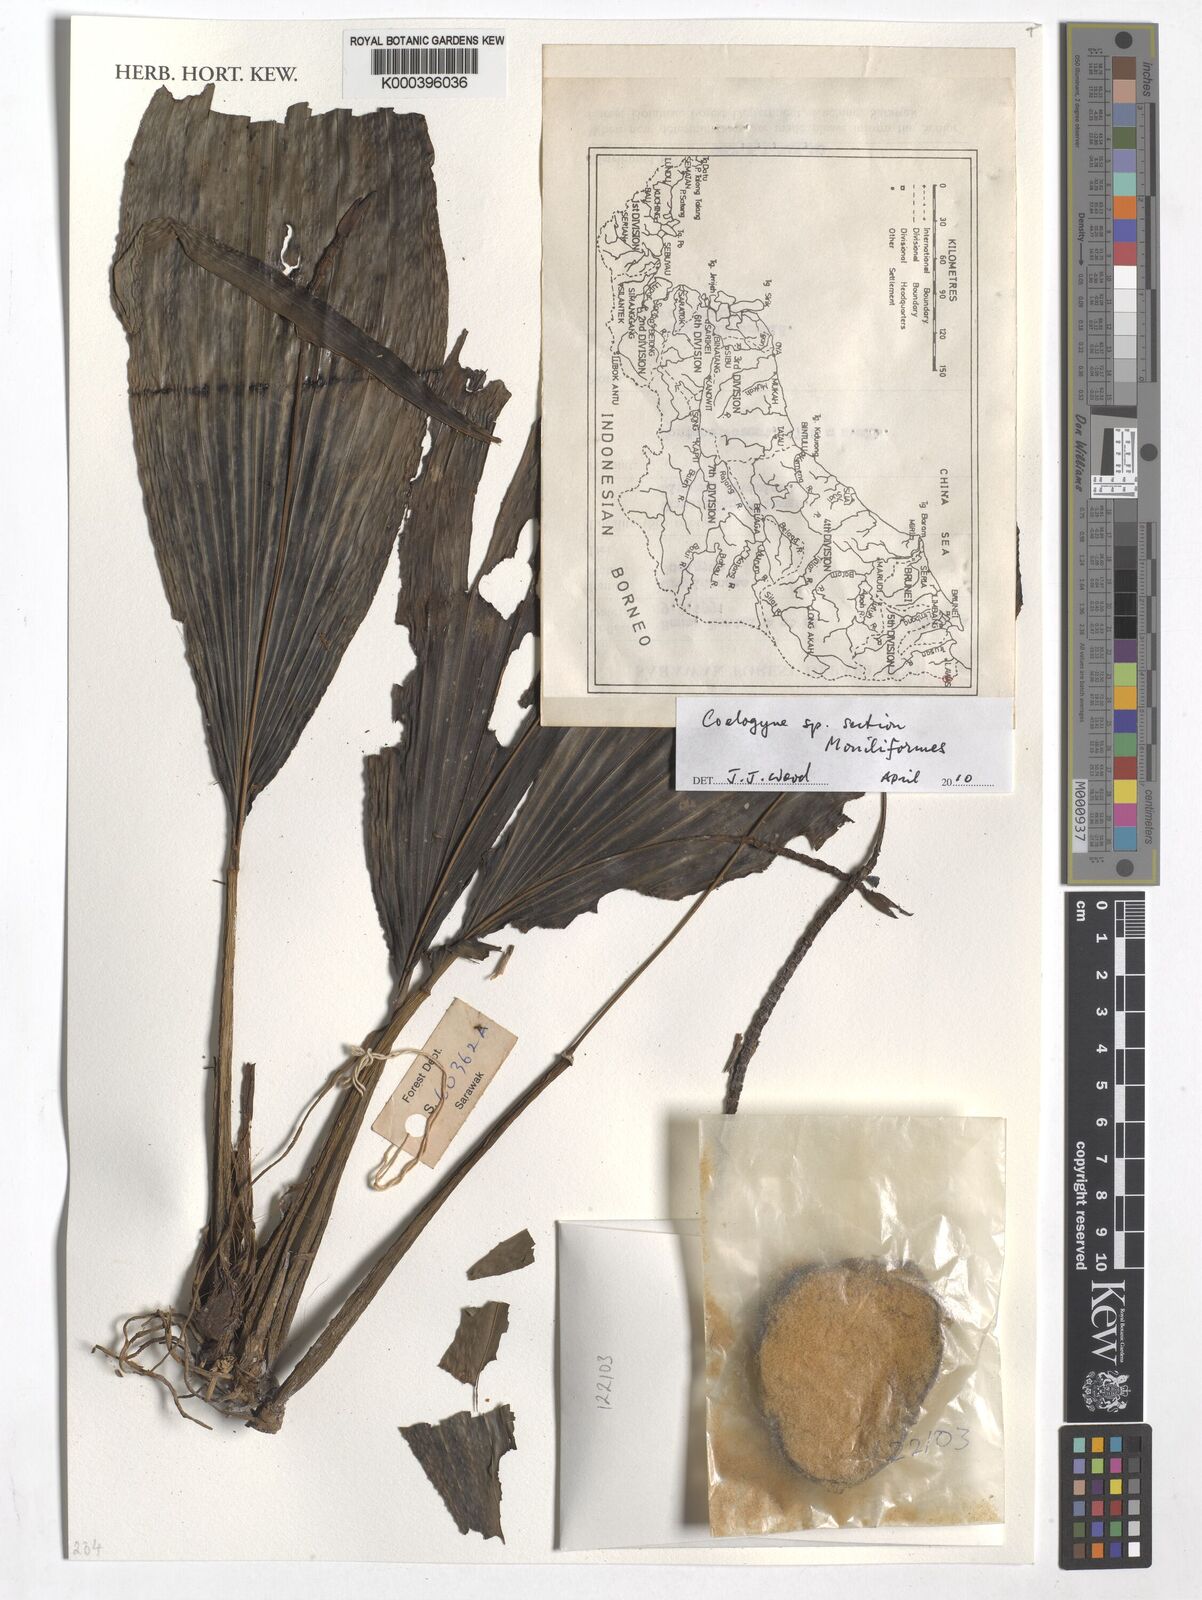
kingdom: Plantae
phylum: Tracheophyta
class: Liliopsida
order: Asparagales
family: Orchidaceae
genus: Coelogyne
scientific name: Coelogyne
